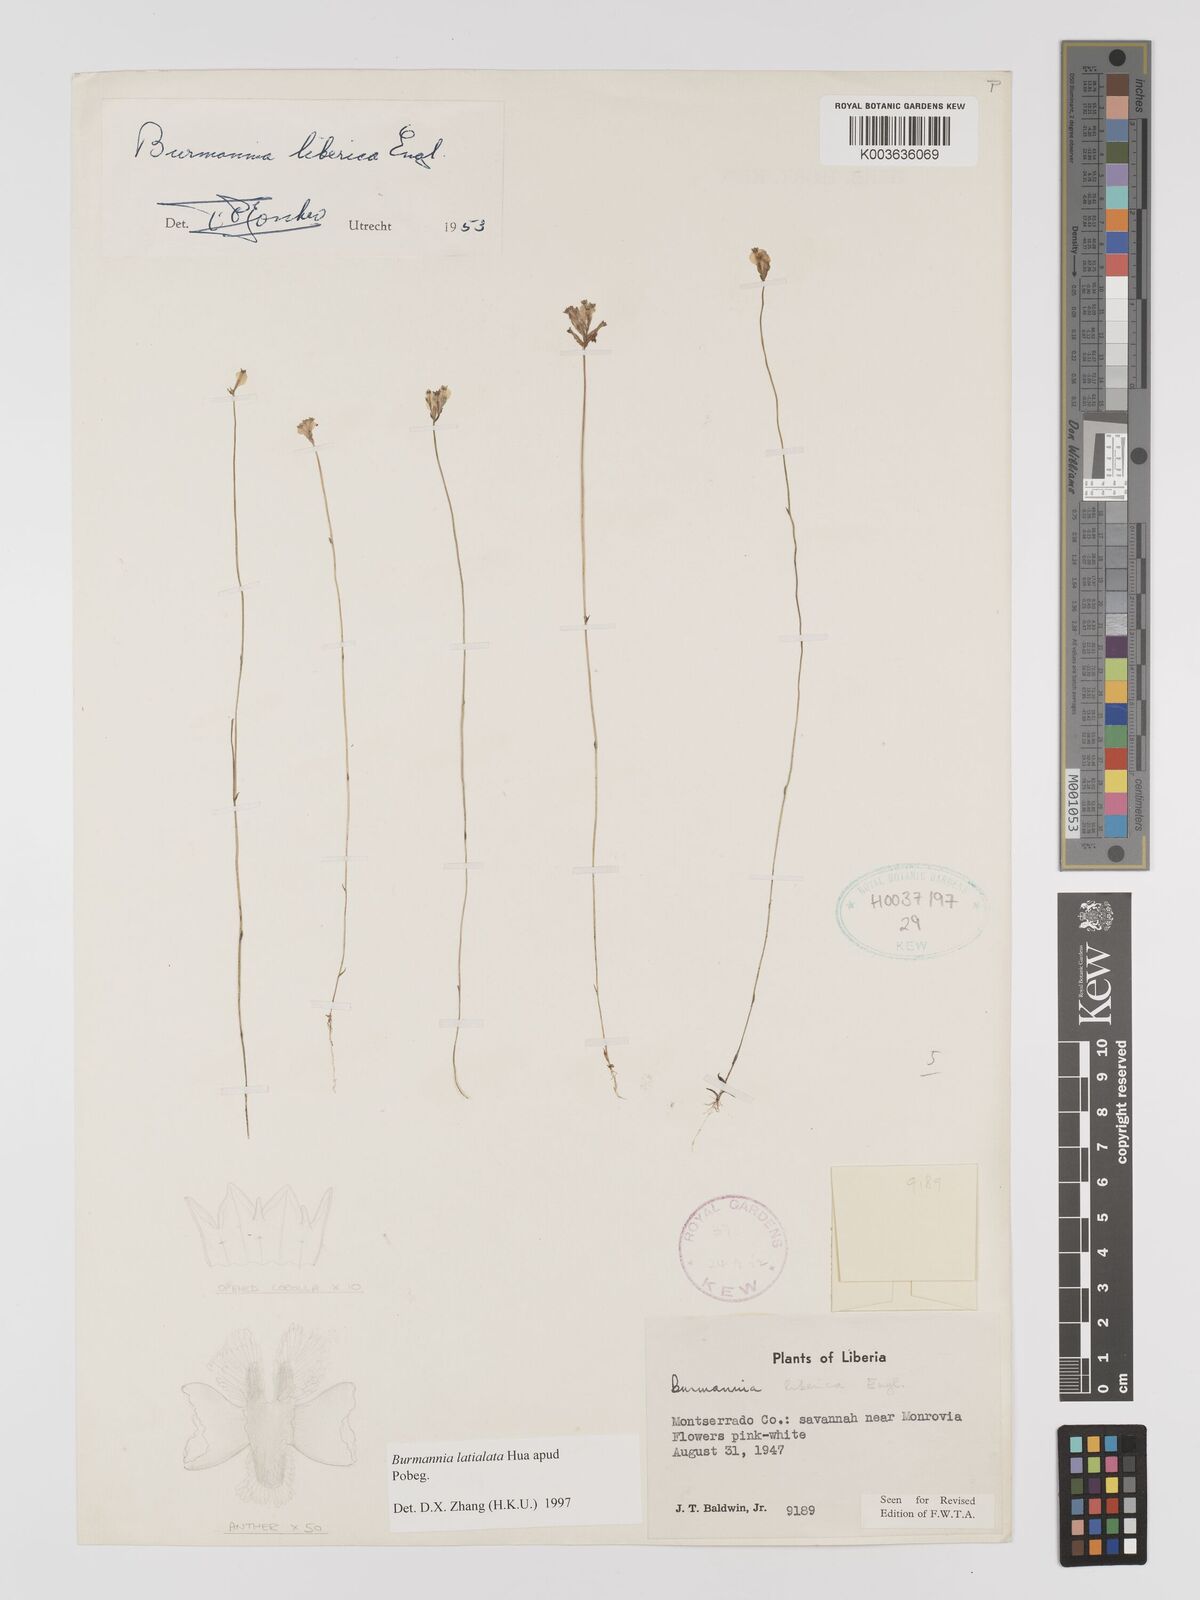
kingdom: Plantae
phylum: Tracheophyta
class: Liliopsida
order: Dioscoreales
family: Burmanniaceae
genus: Burmannia
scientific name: Burmannia madagascariensis
